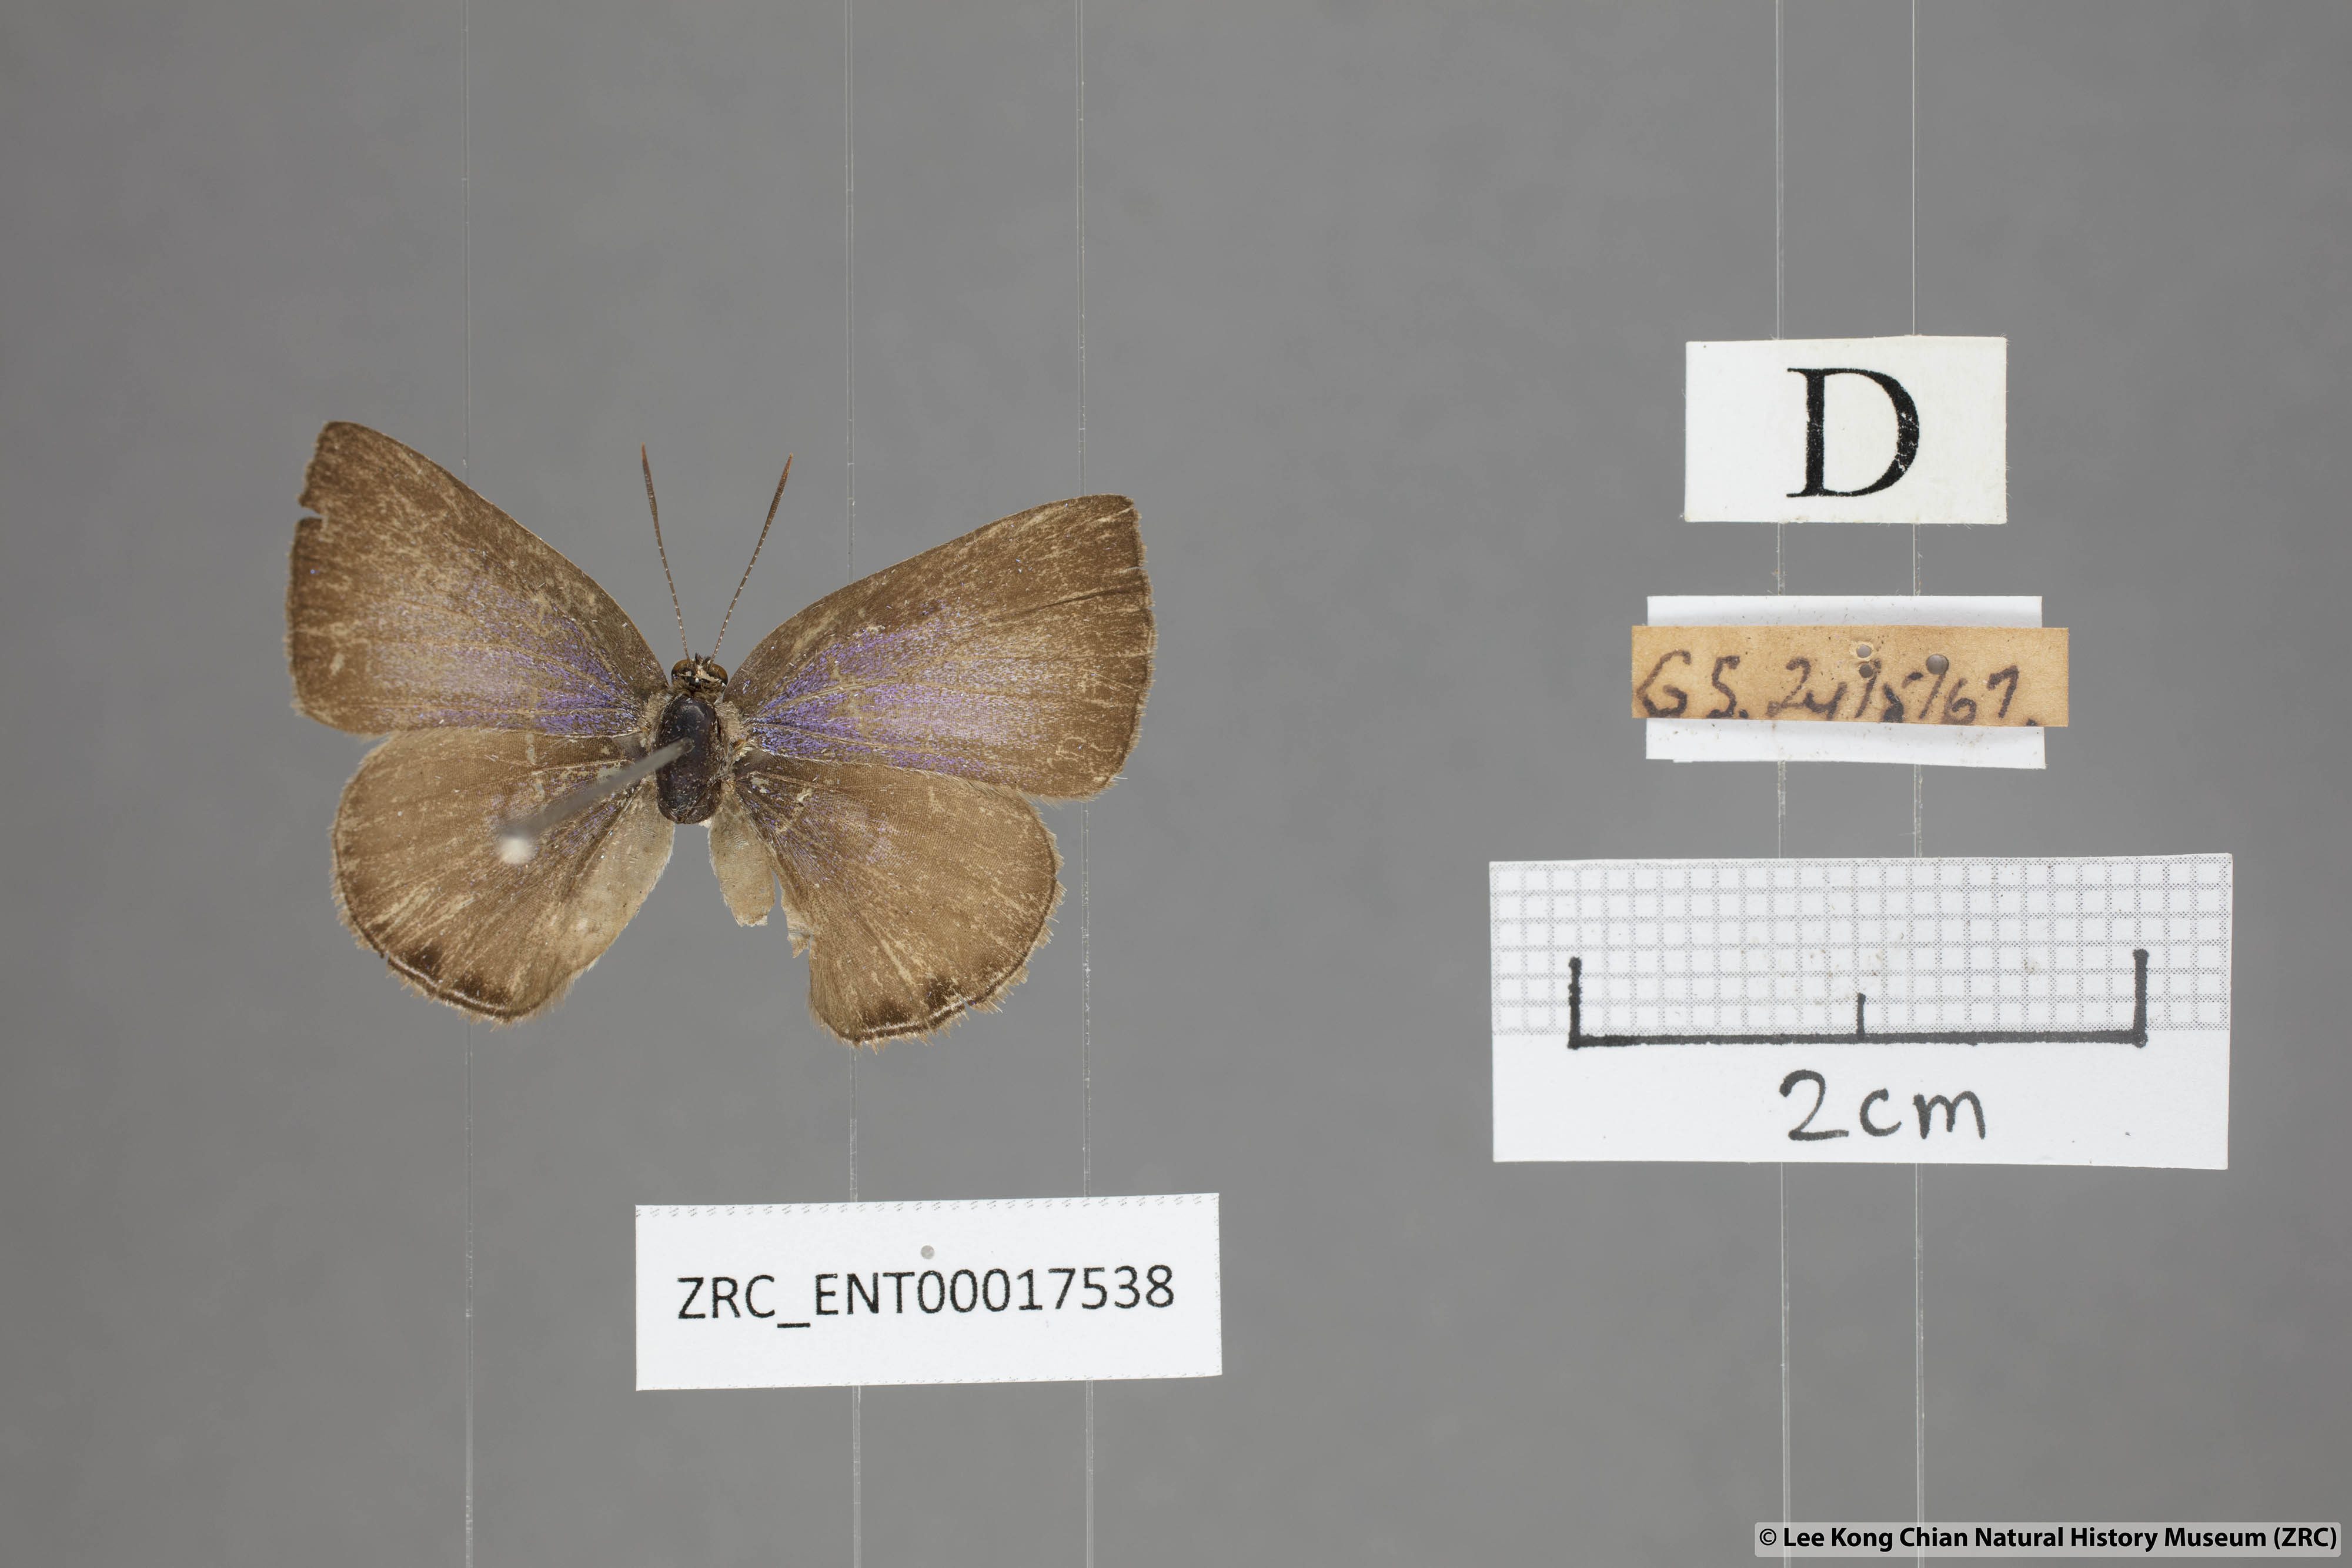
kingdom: Animalia
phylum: Arthropoda
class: Insecta
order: Lepidoptera
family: Lycaenidae
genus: Anthene
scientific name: Anthene emolus
